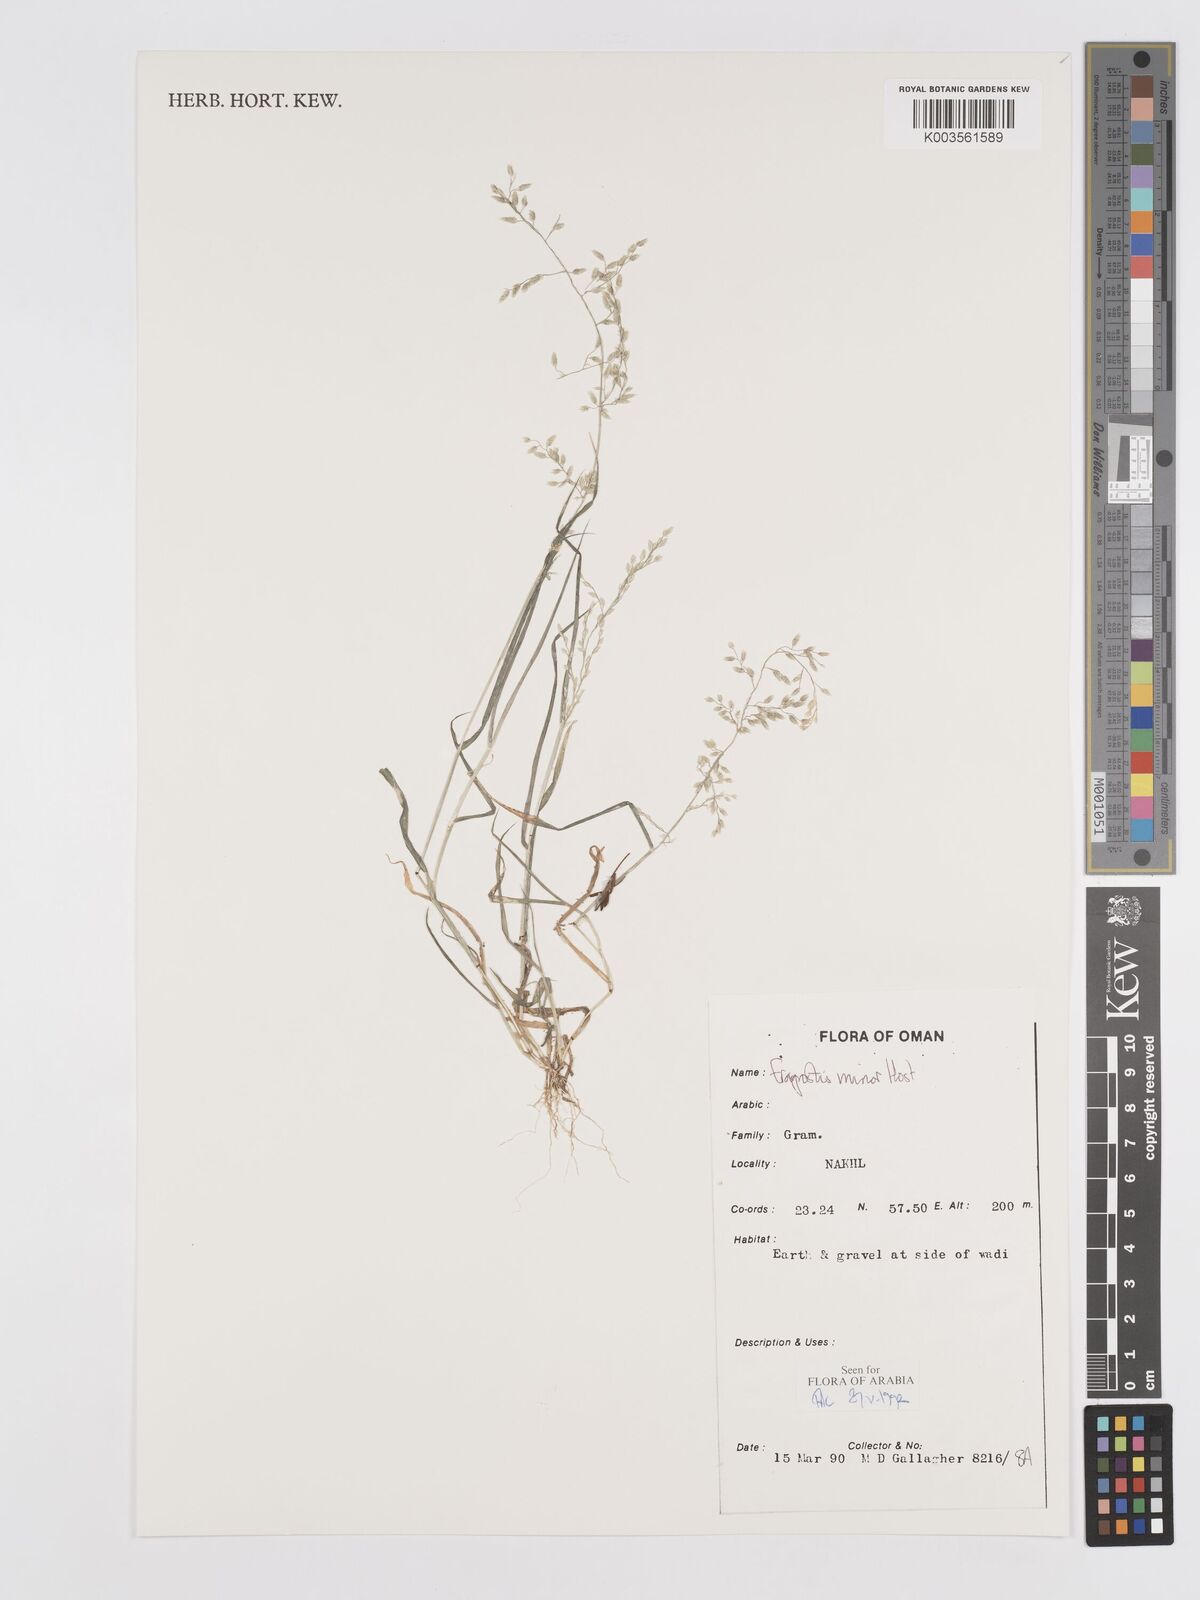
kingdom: Plantae
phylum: Tracheophyta
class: Liliopsida
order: Poales
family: Poaceae
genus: Eragrostis
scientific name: Eragrostis minor
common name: Small love-grass
